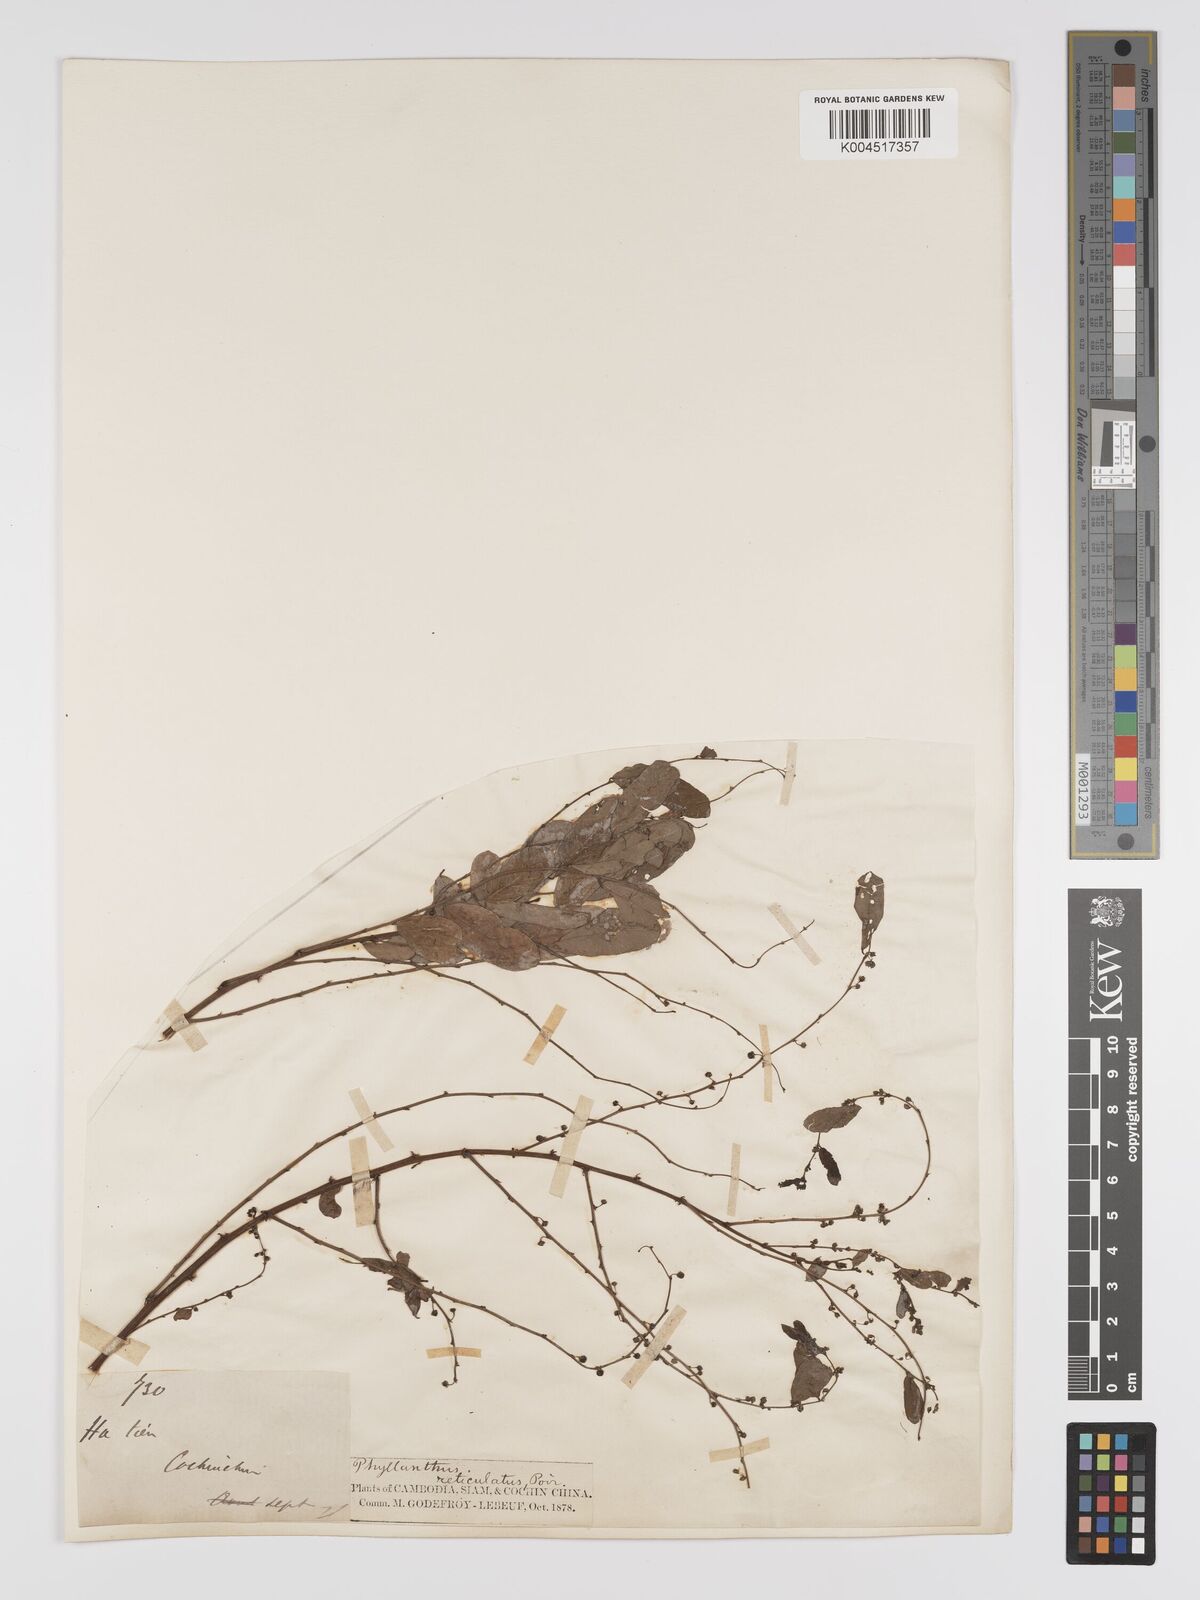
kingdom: Plantae
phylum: Tracheophyta
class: Magnoliopsida
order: Malpighiales
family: Phyllanthaceae
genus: Phyllanthus
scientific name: Phyllanthus reticulatus
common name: Potato bush
